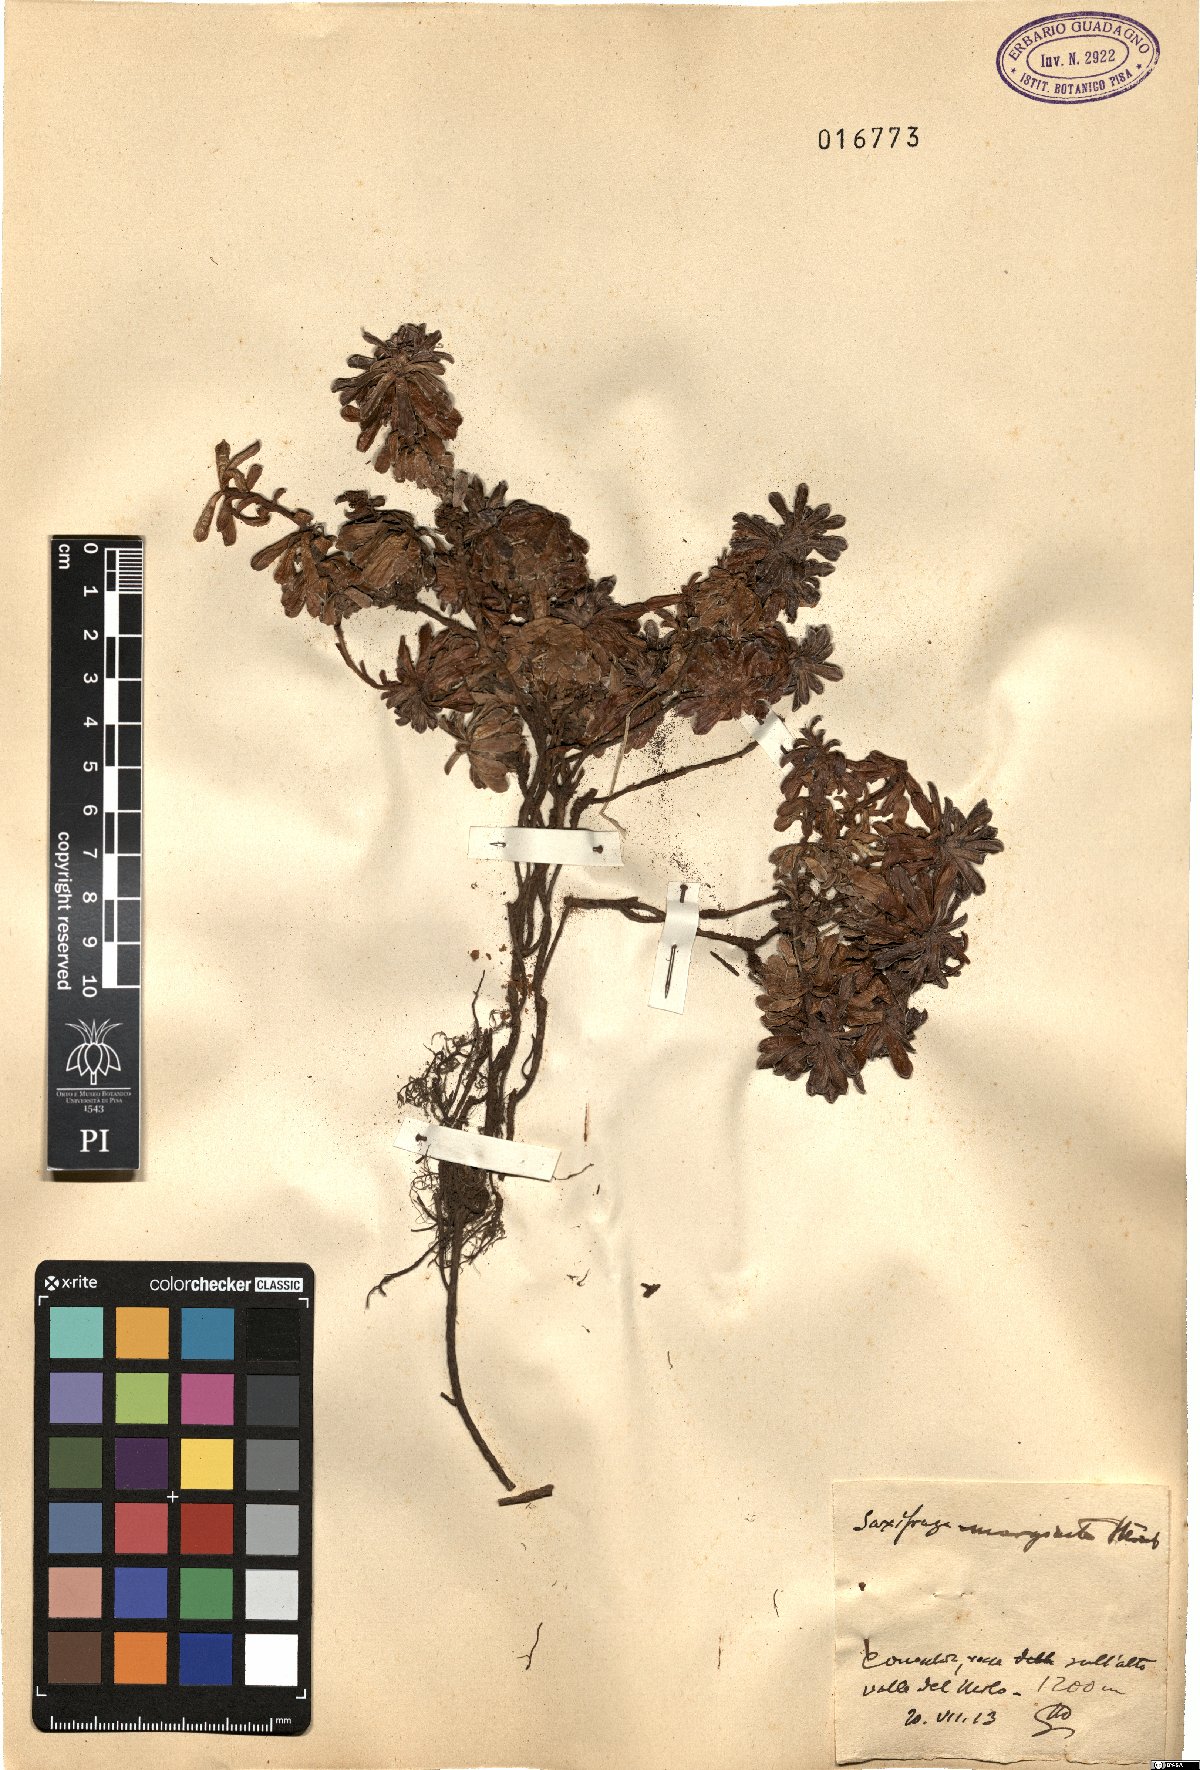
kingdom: Plantae
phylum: Tracheophyta
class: Magnoliopsida
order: Saxifragales
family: Saxifragaceae
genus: Saxifraga
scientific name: Saxifraga marginata
